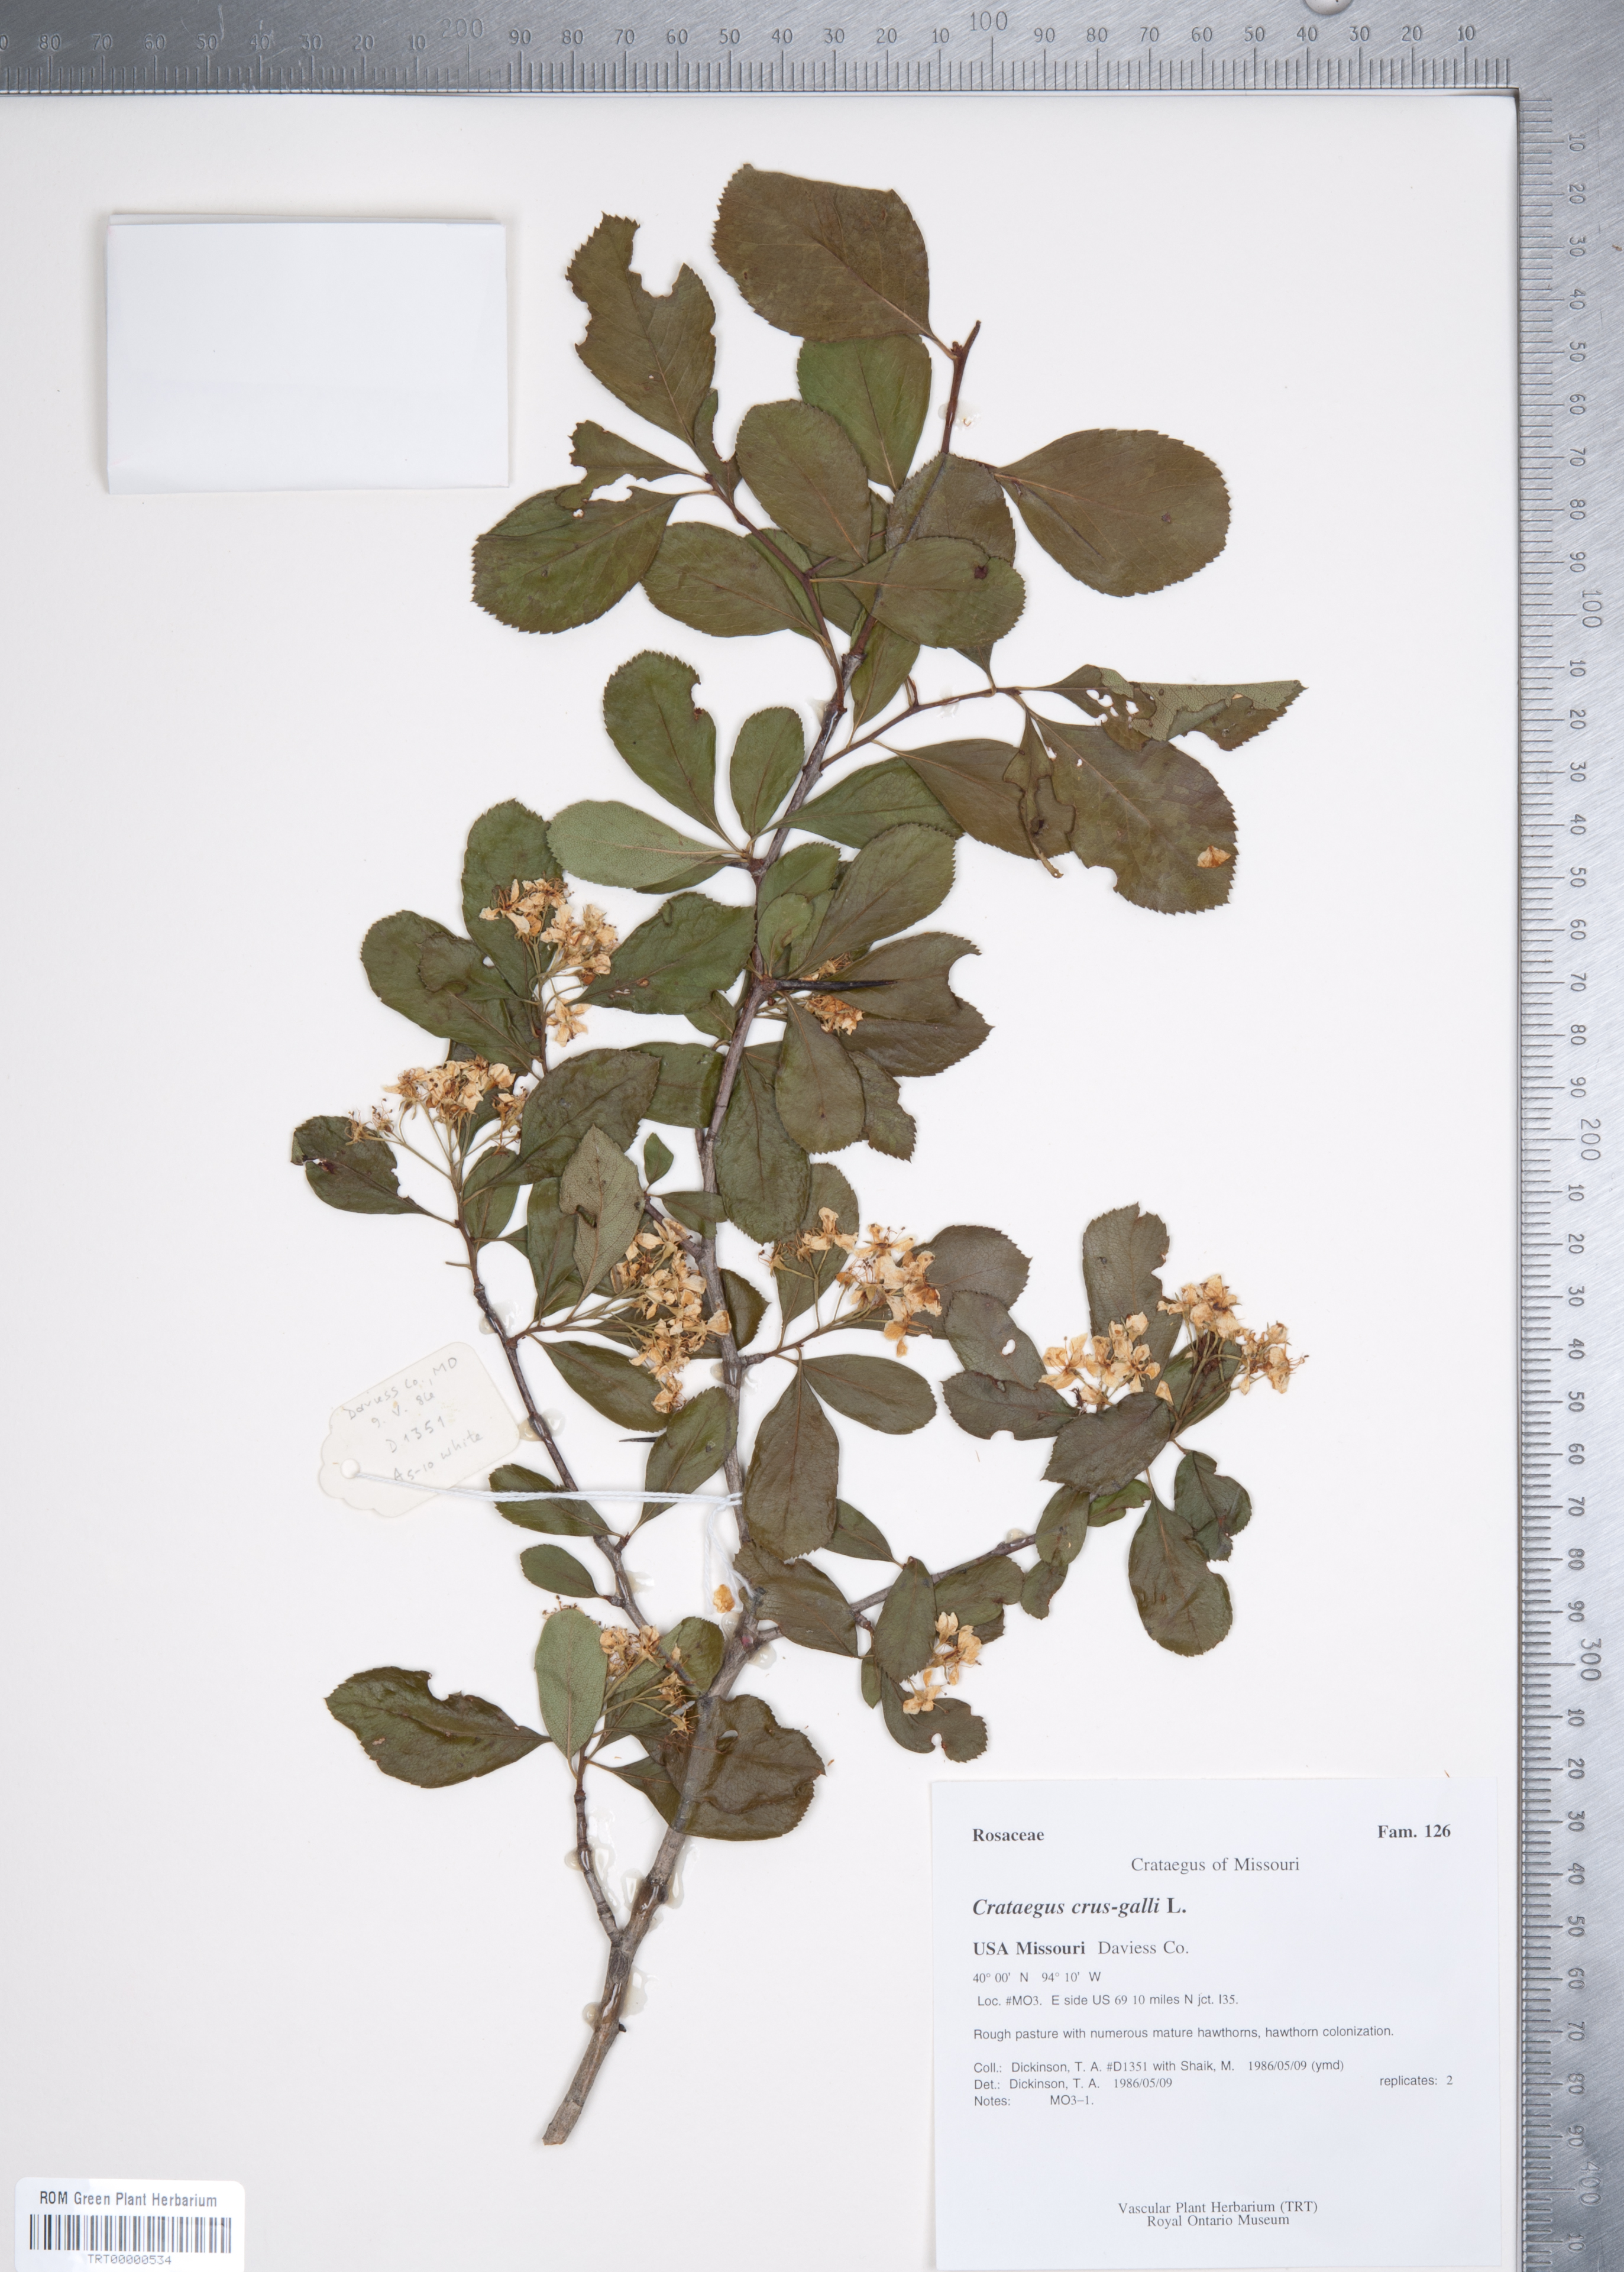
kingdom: Plantae
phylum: Tracheophyta
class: Magnoliopsida
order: Rosales
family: Rosaceae
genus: Crataegus
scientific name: Crataegus crus-galli
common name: Cockspurthorn
